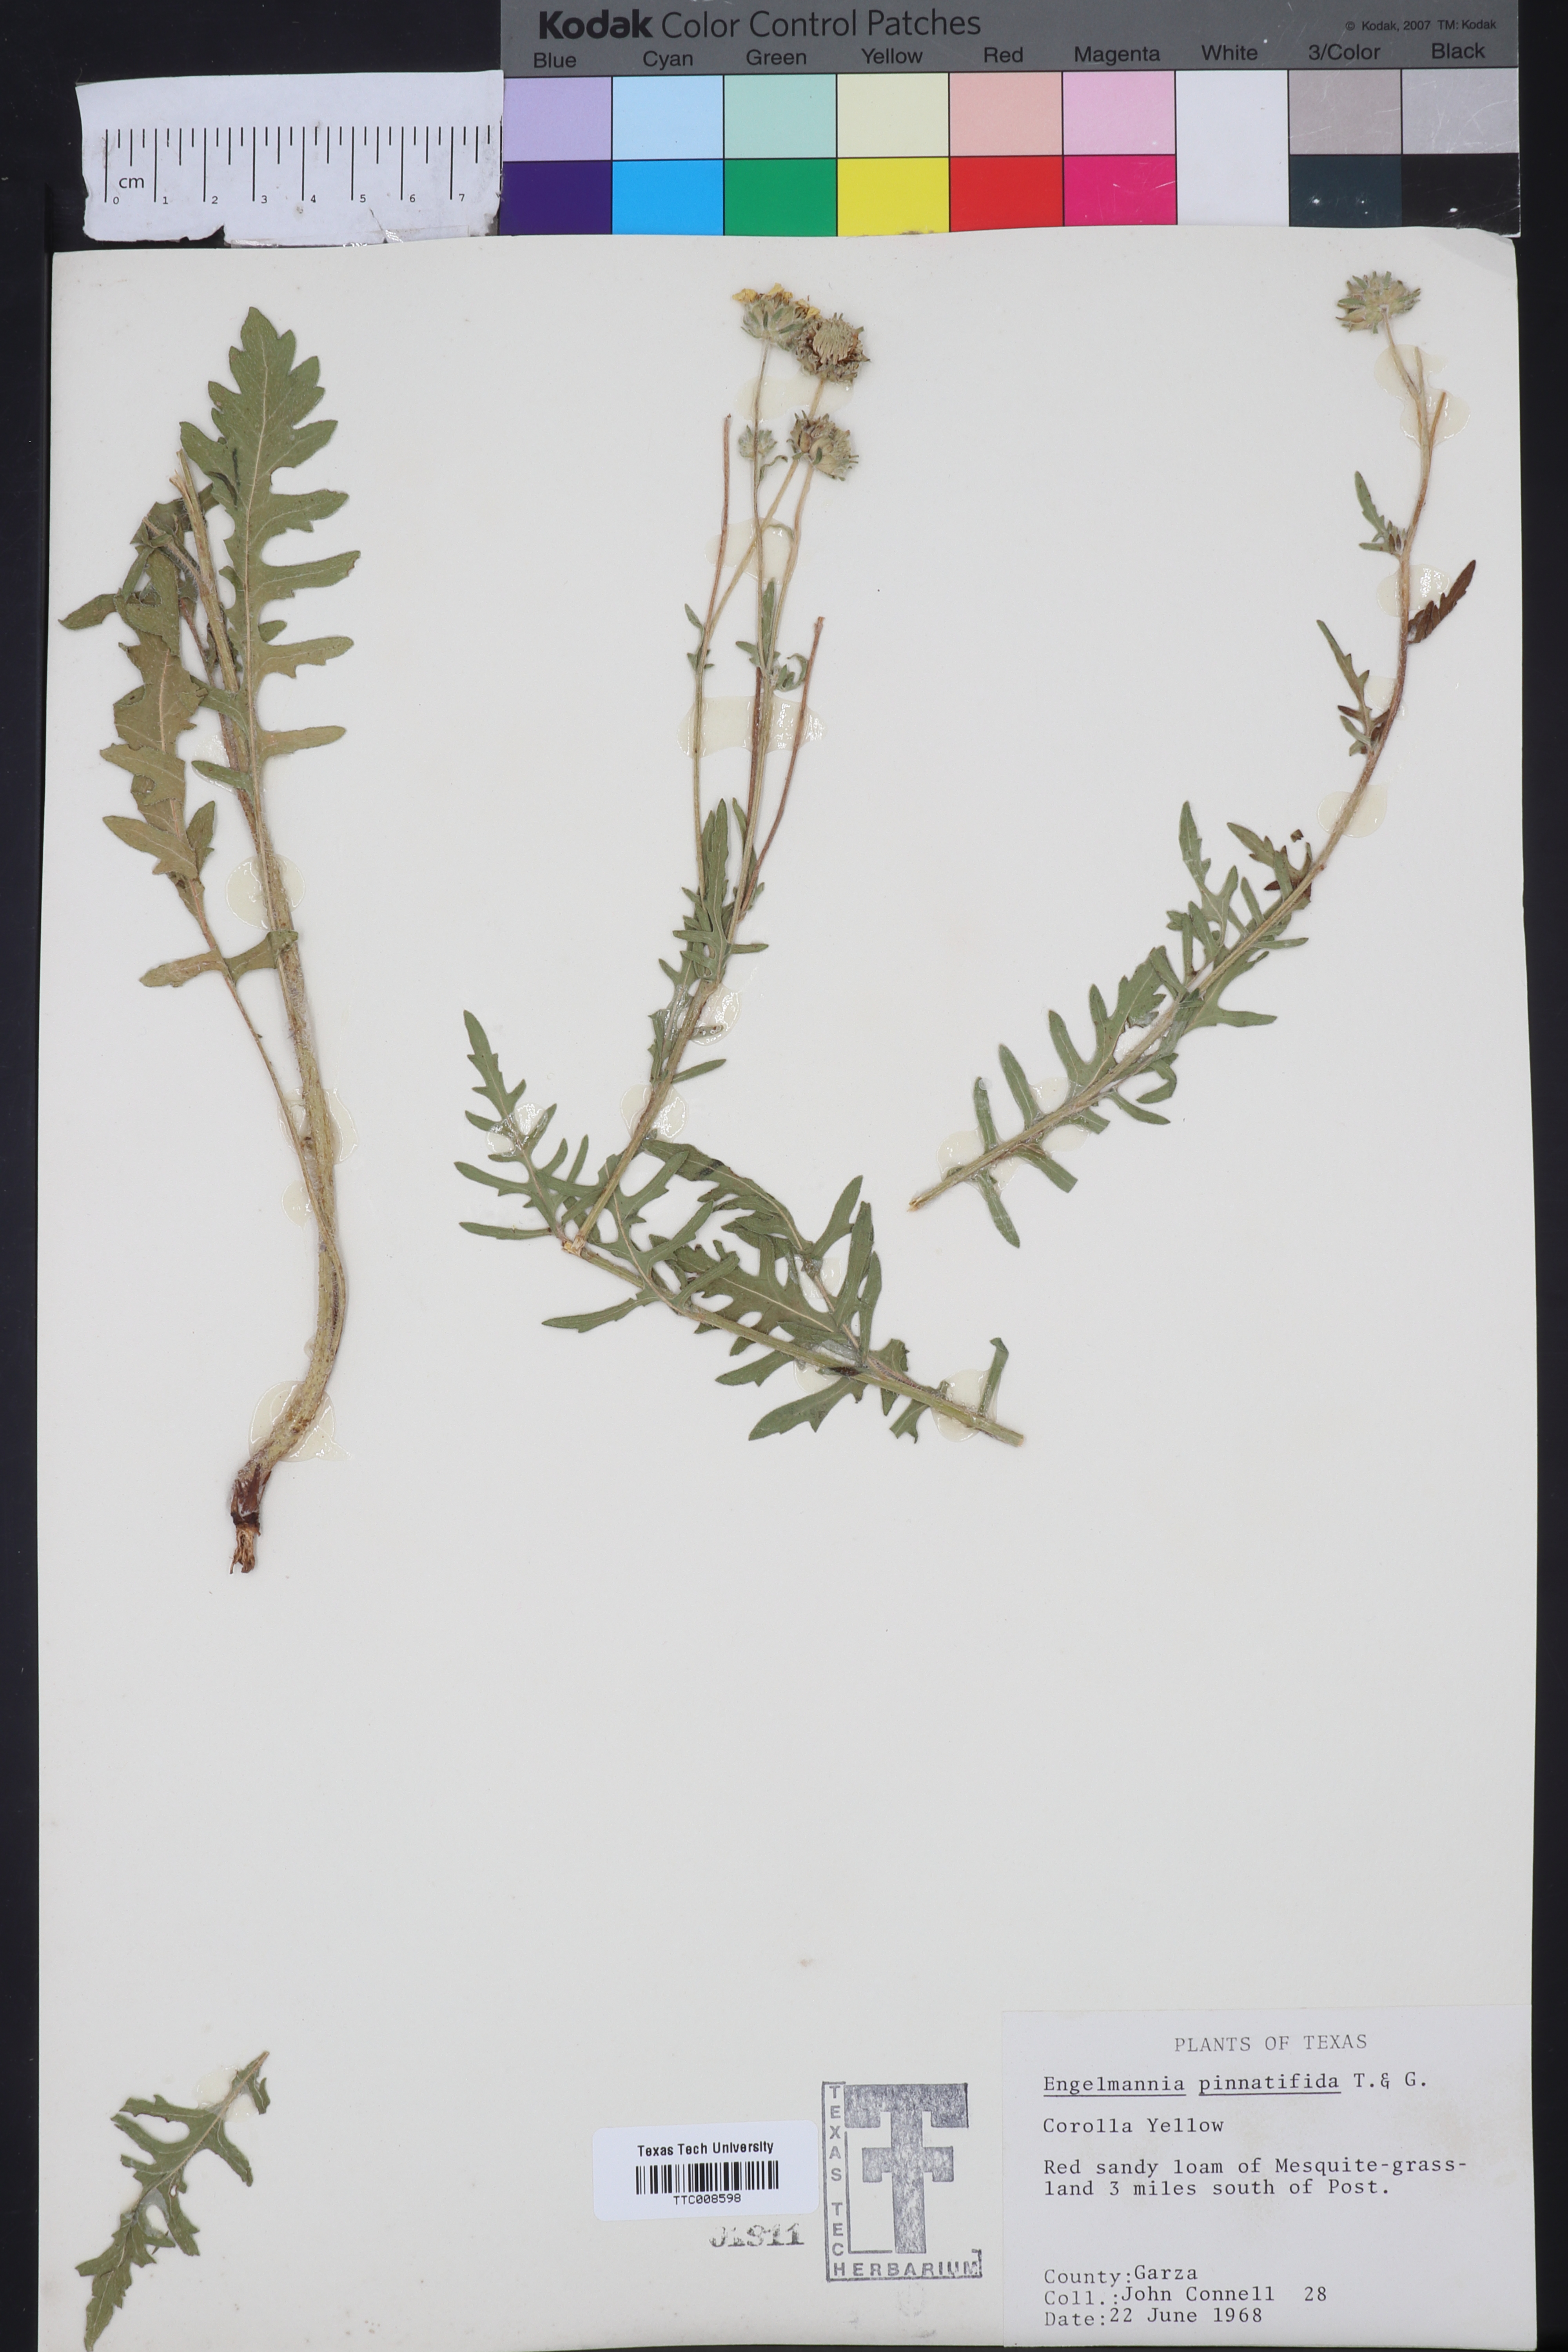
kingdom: Plantae
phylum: Tracheophyta
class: Magnoliopsida
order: Asterales
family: Asteraceae
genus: Engelmannia
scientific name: Engelmannia peristenia
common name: Engelmann's daisy
